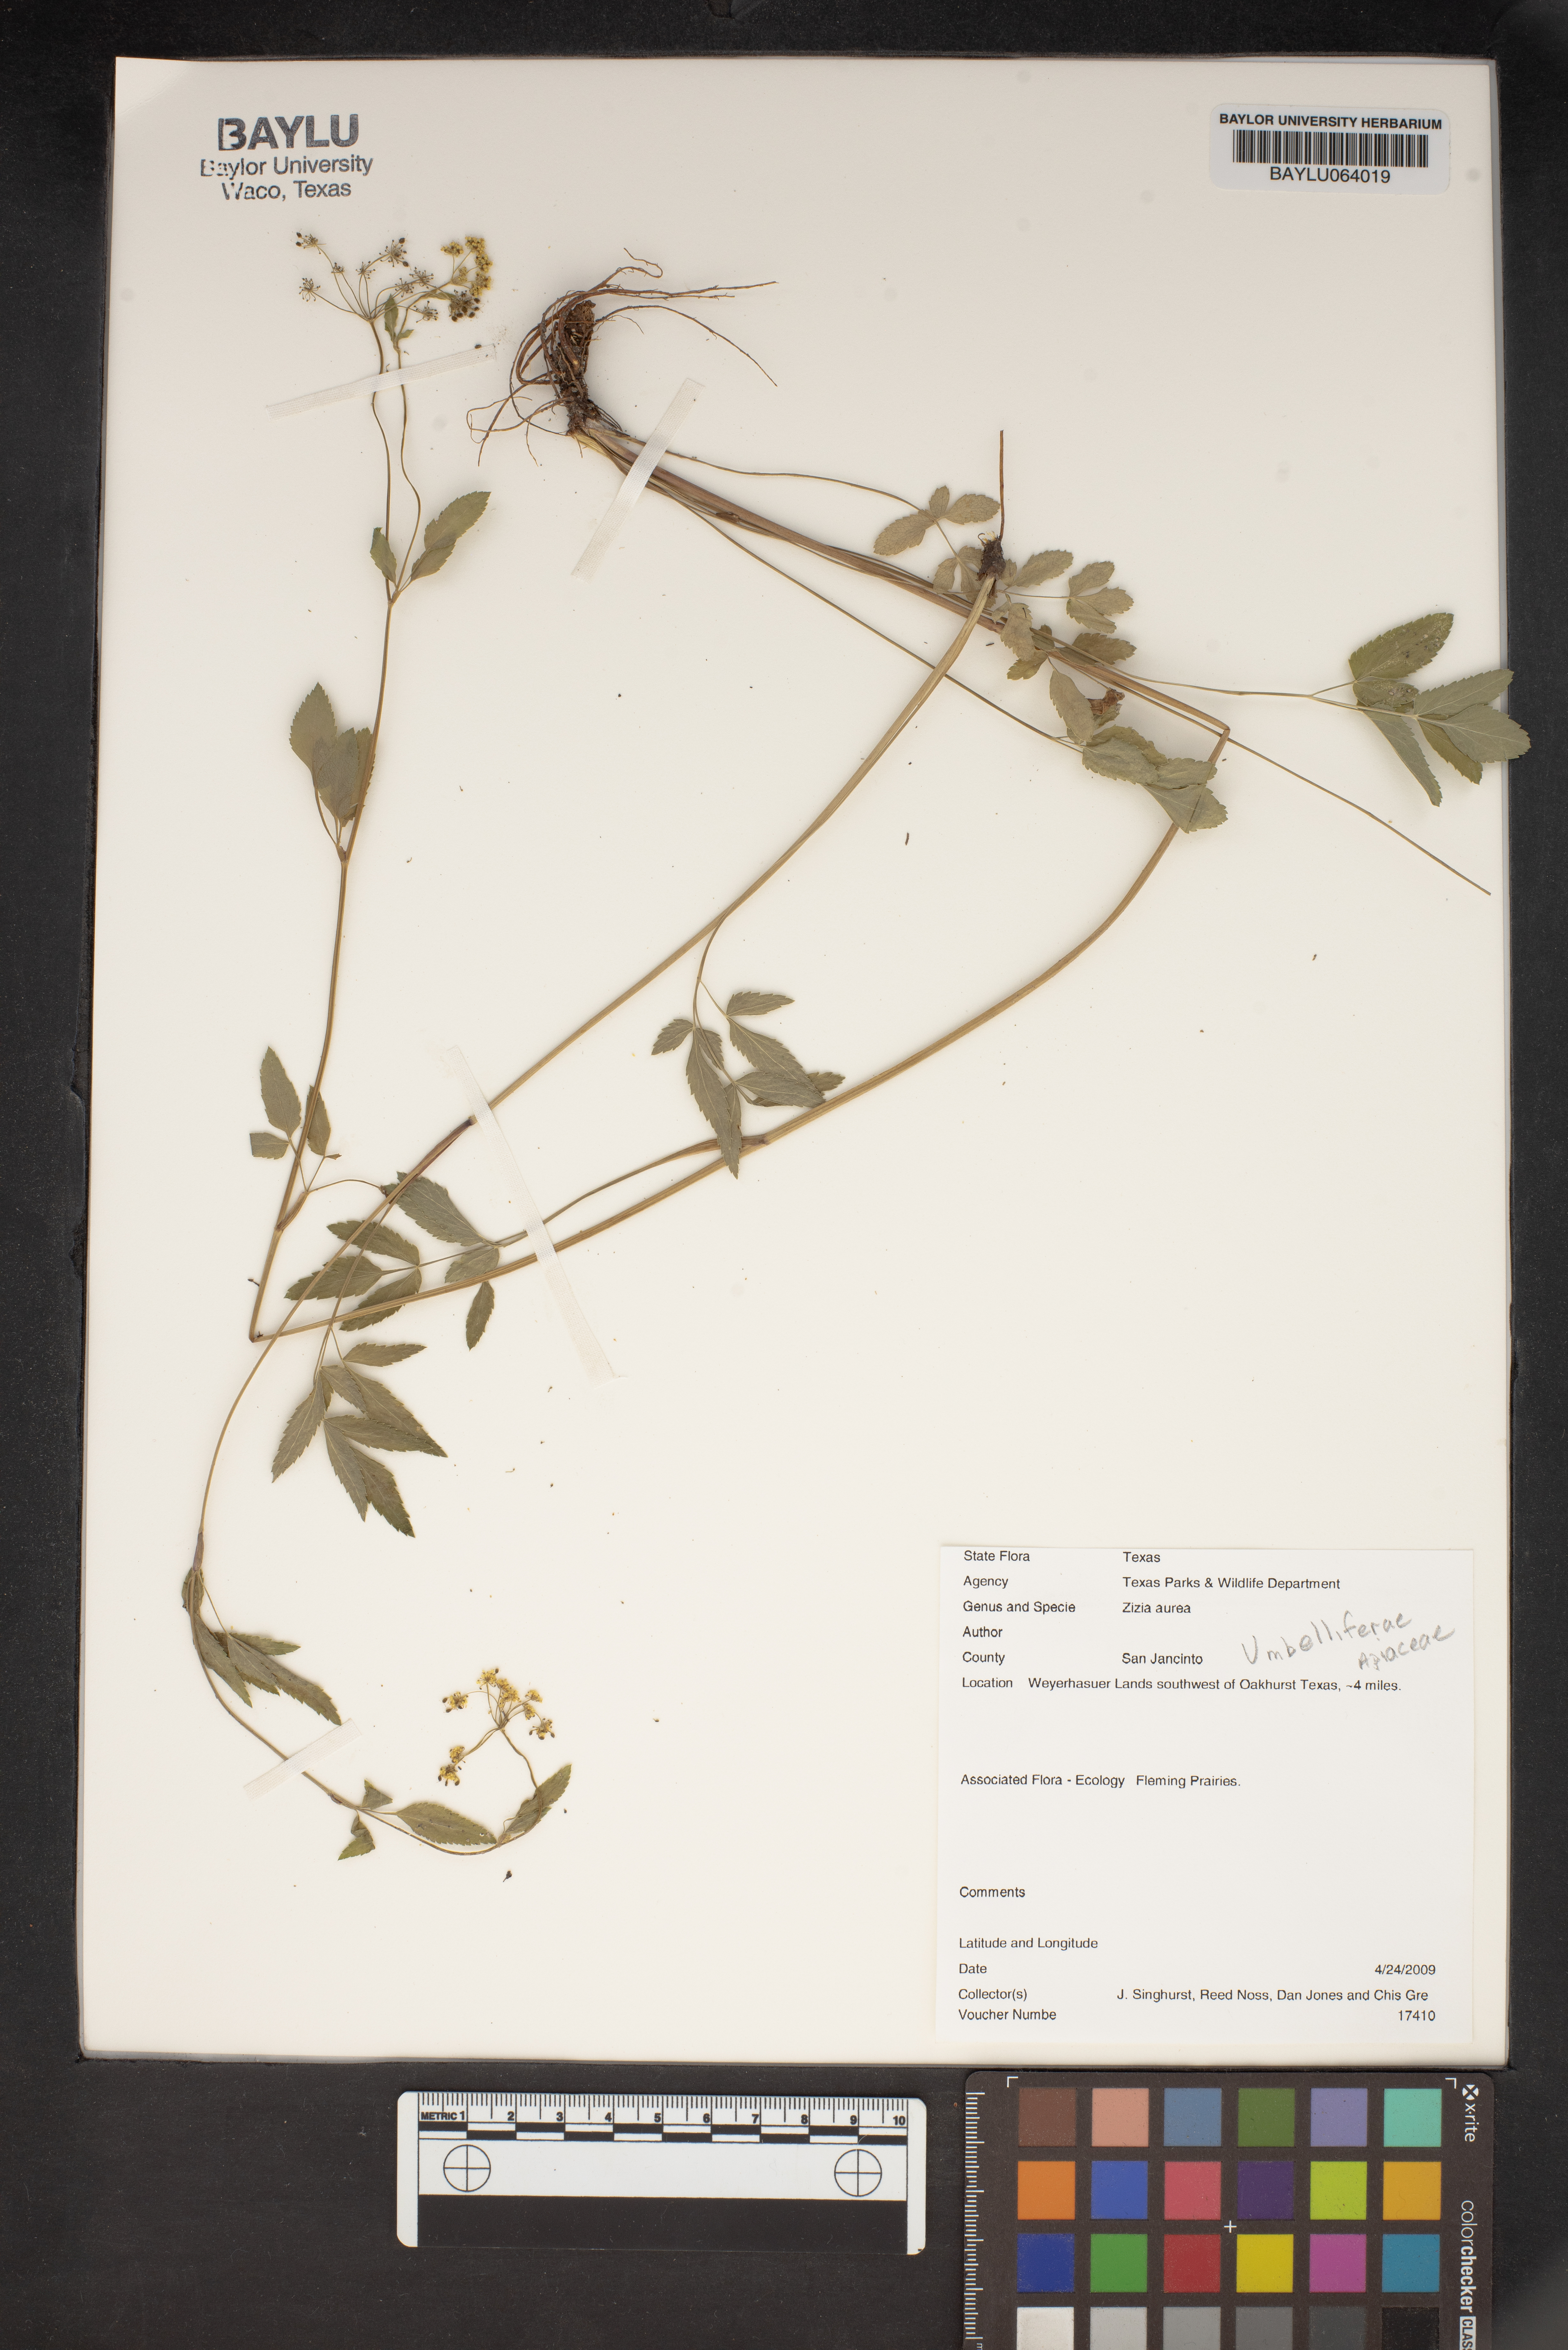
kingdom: Plantae
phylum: Tracheophyta
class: Magnoliopsida
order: Apiales
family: Apiaceae
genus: Zizia
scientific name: Zizia aurea
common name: Golden alexanders
